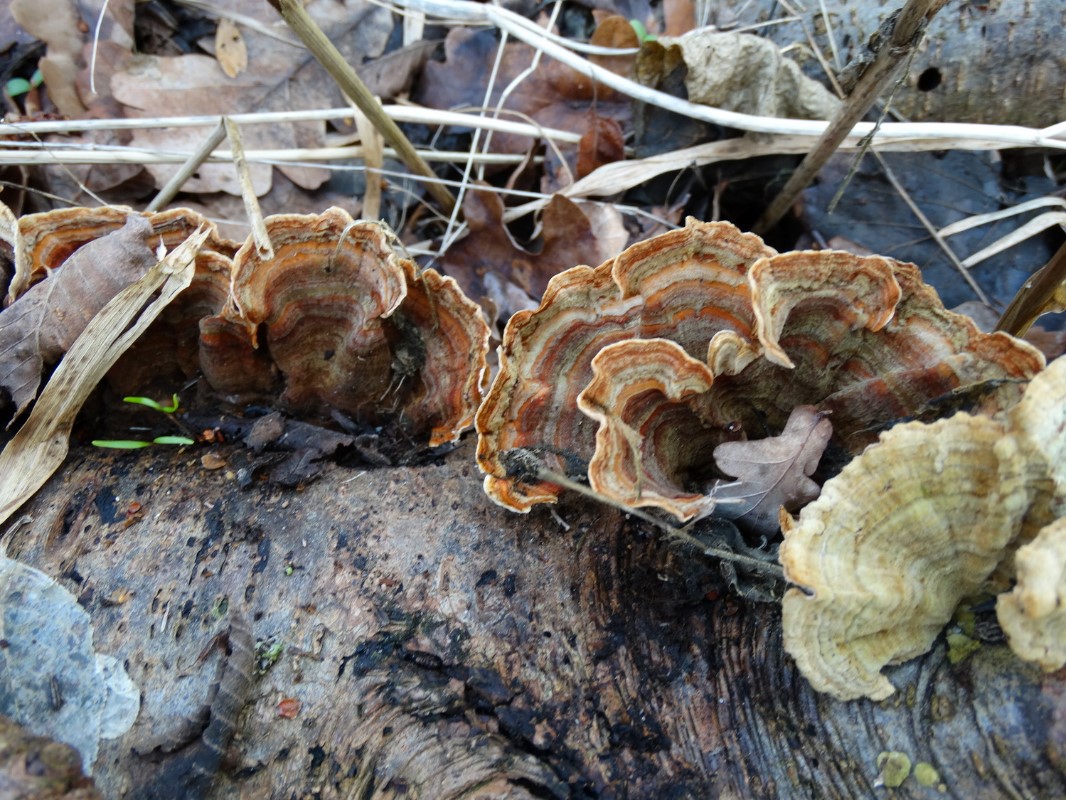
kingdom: Fungi
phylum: Basidiomycota
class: Agaricomycetes
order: Russulales
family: Stereaceae
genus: Stereum
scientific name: Stereum subtomentosum
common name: smuk lædersvamp
